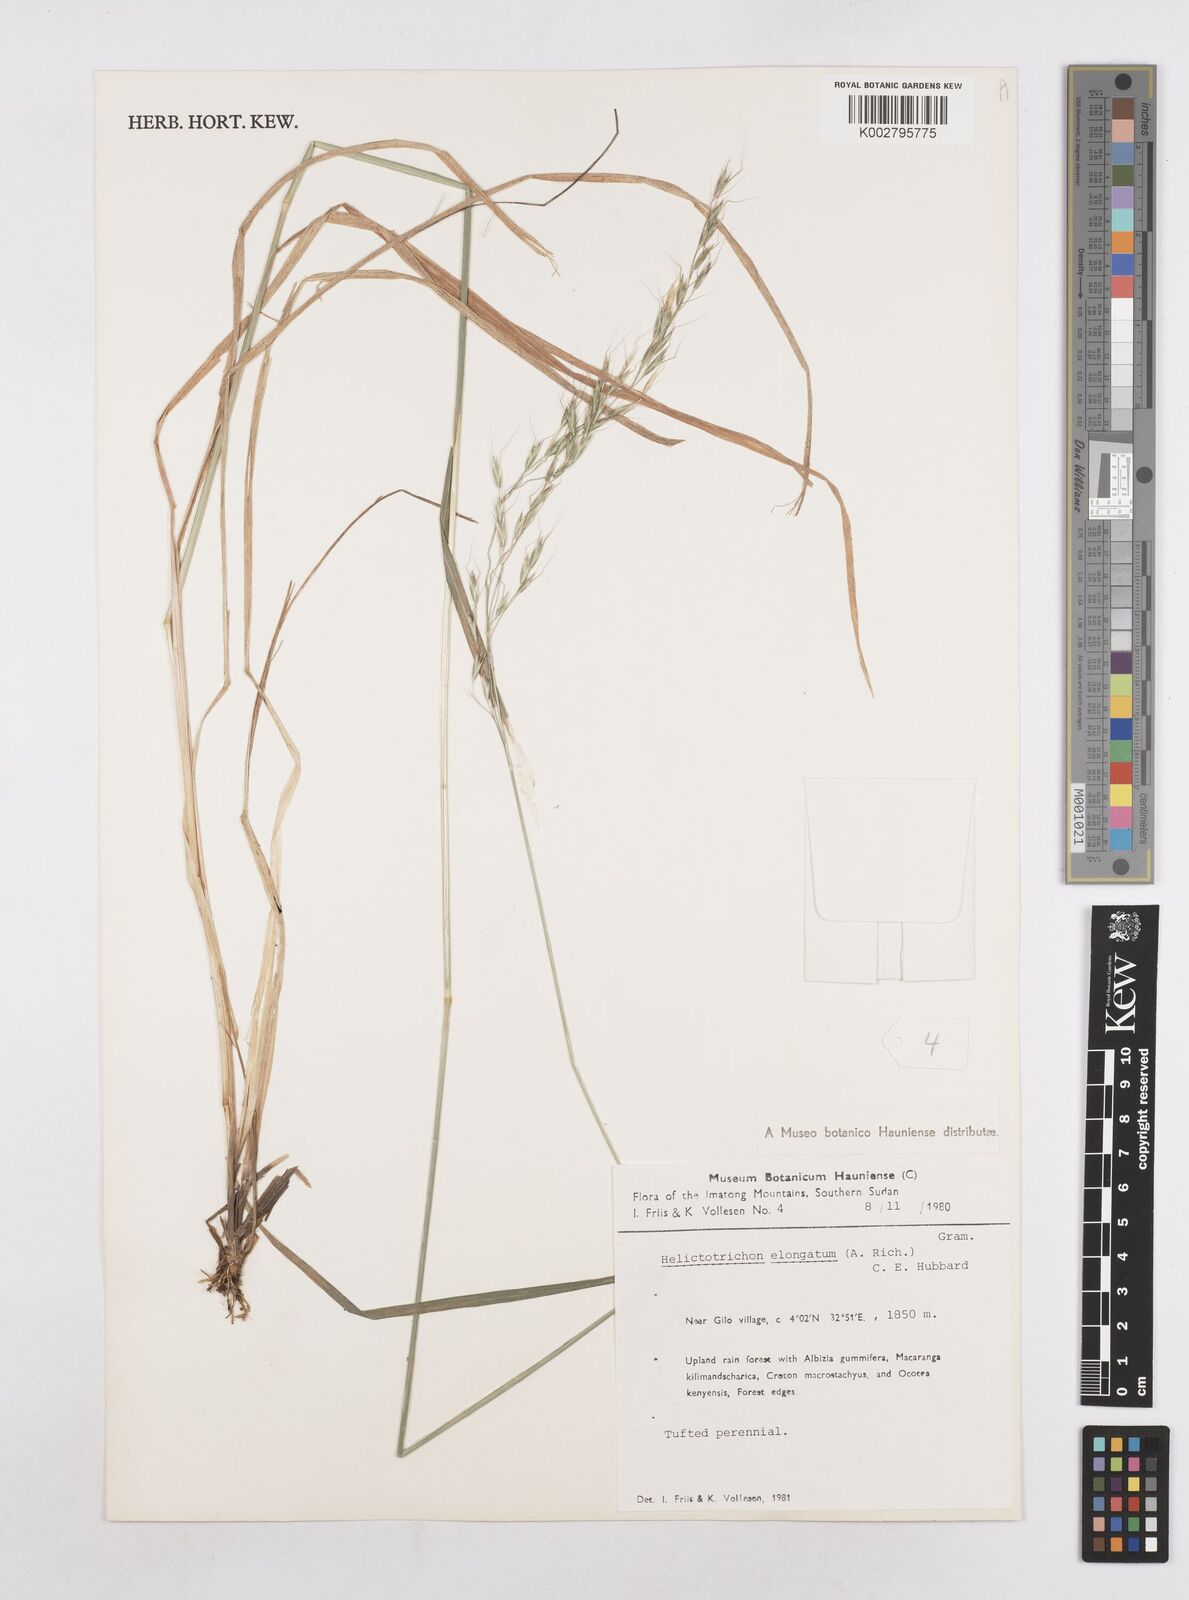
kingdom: Plantae
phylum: Tracheophyta
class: Liliopsida
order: Poales
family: Poaceae
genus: Trisetopsis
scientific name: Trisetopsis elongata
